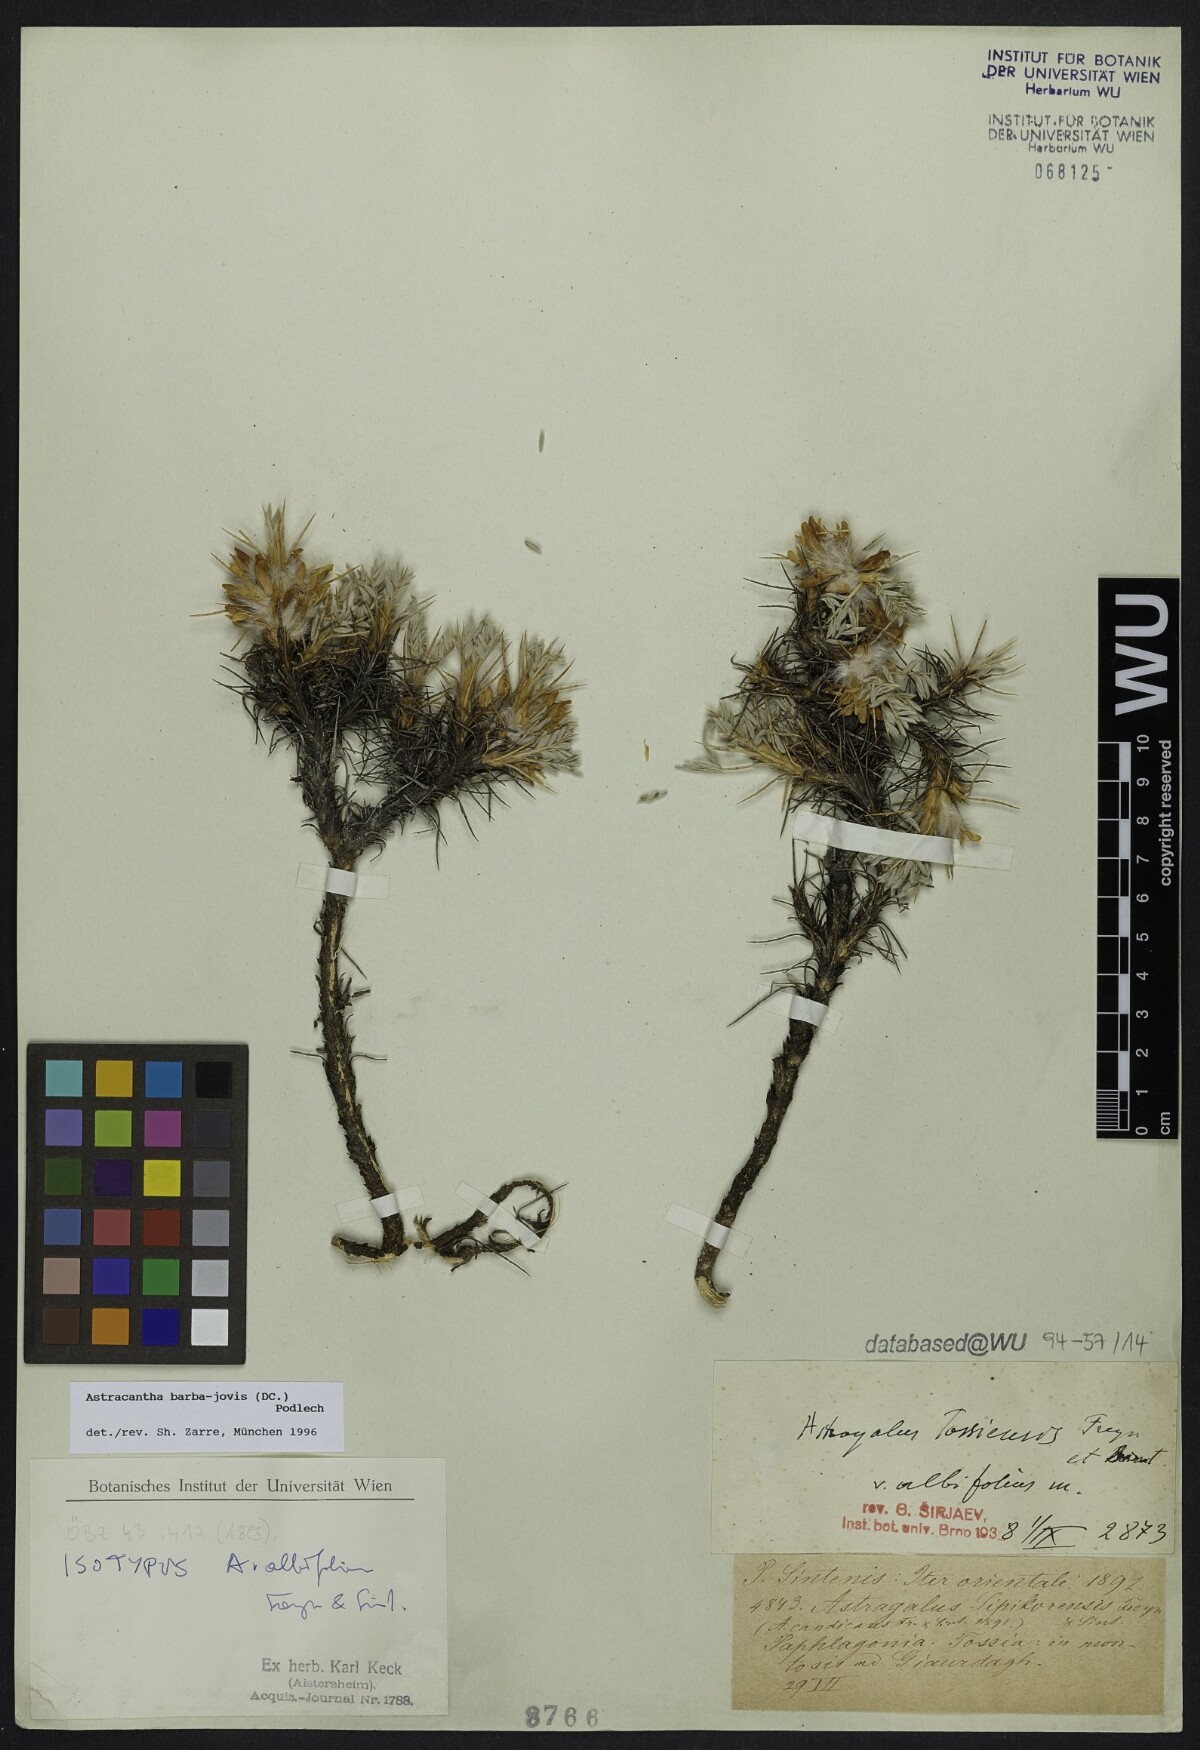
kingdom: Plantae
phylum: Tracheophyta
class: Magnoliopsida
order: Fabales
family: Fabaceae
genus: Astragalus
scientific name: Astragalus micropterus
